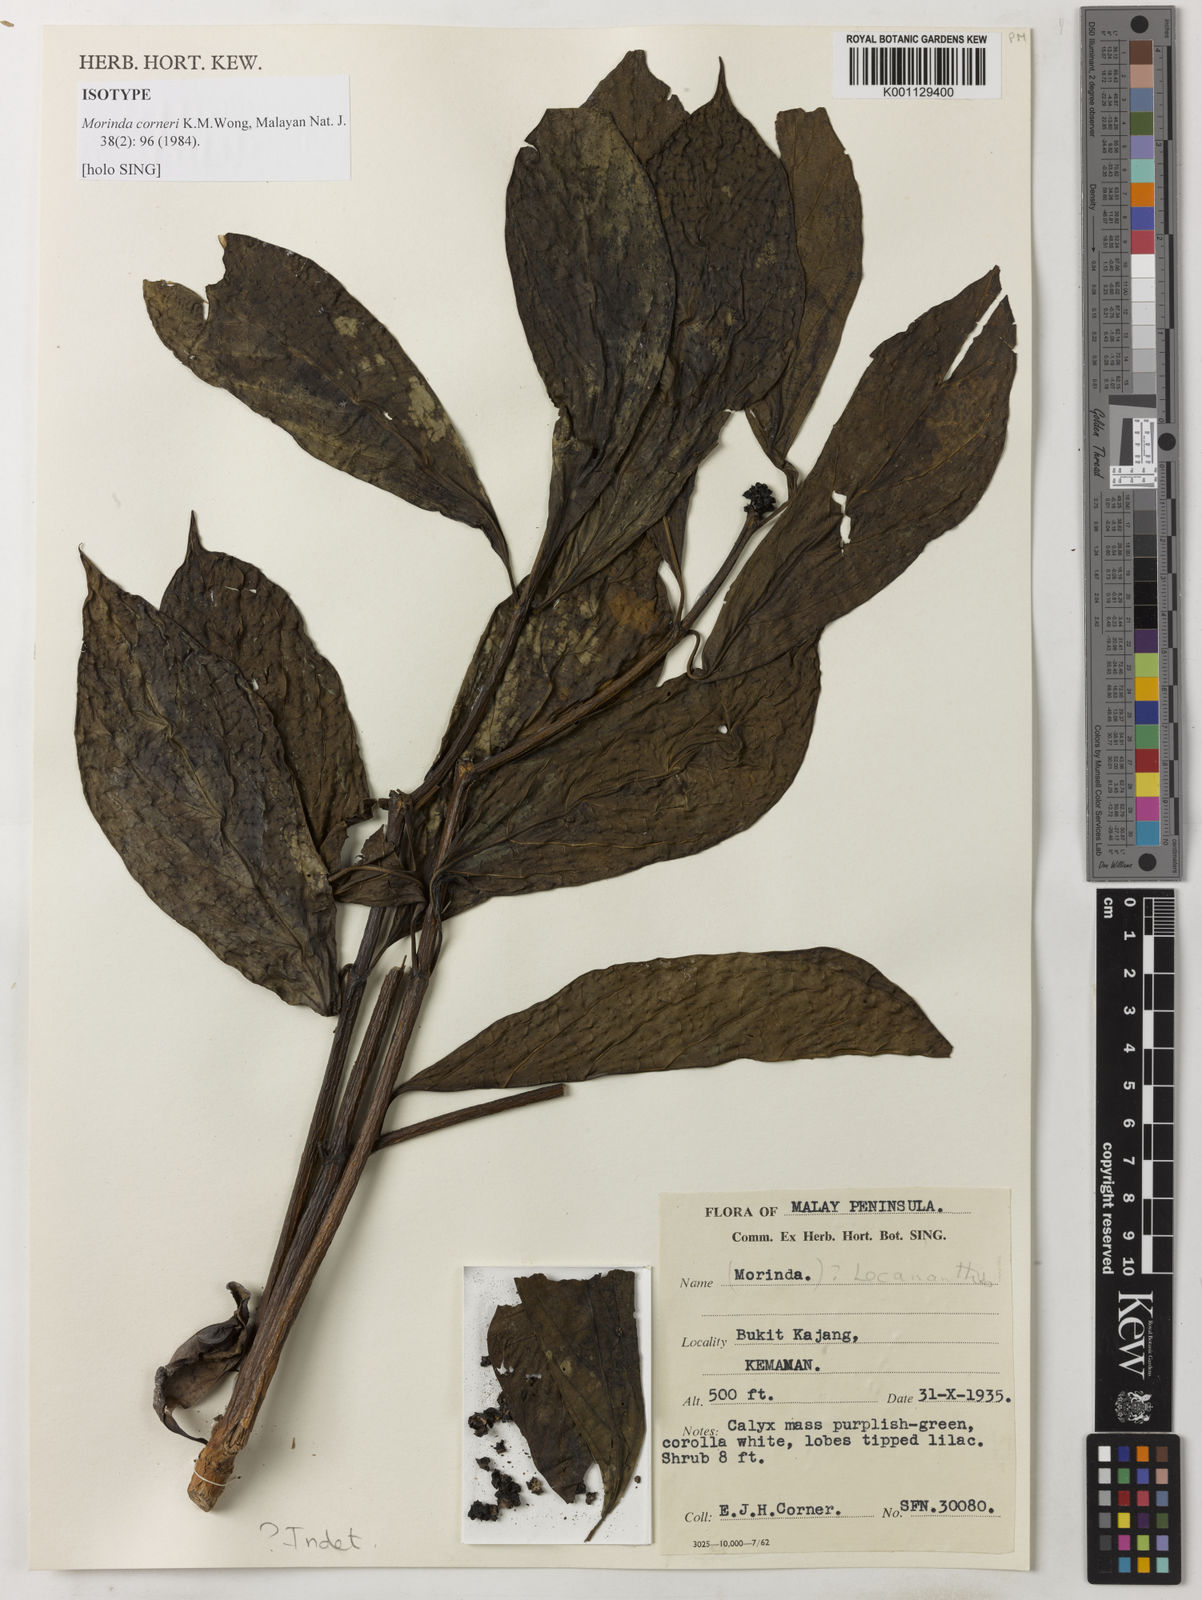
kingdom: Plantae
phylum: Tracheophyta
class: Magnoliopsida
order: Gentianales
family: Rubiaceae
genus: Morinda
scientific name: Morinda corneri
